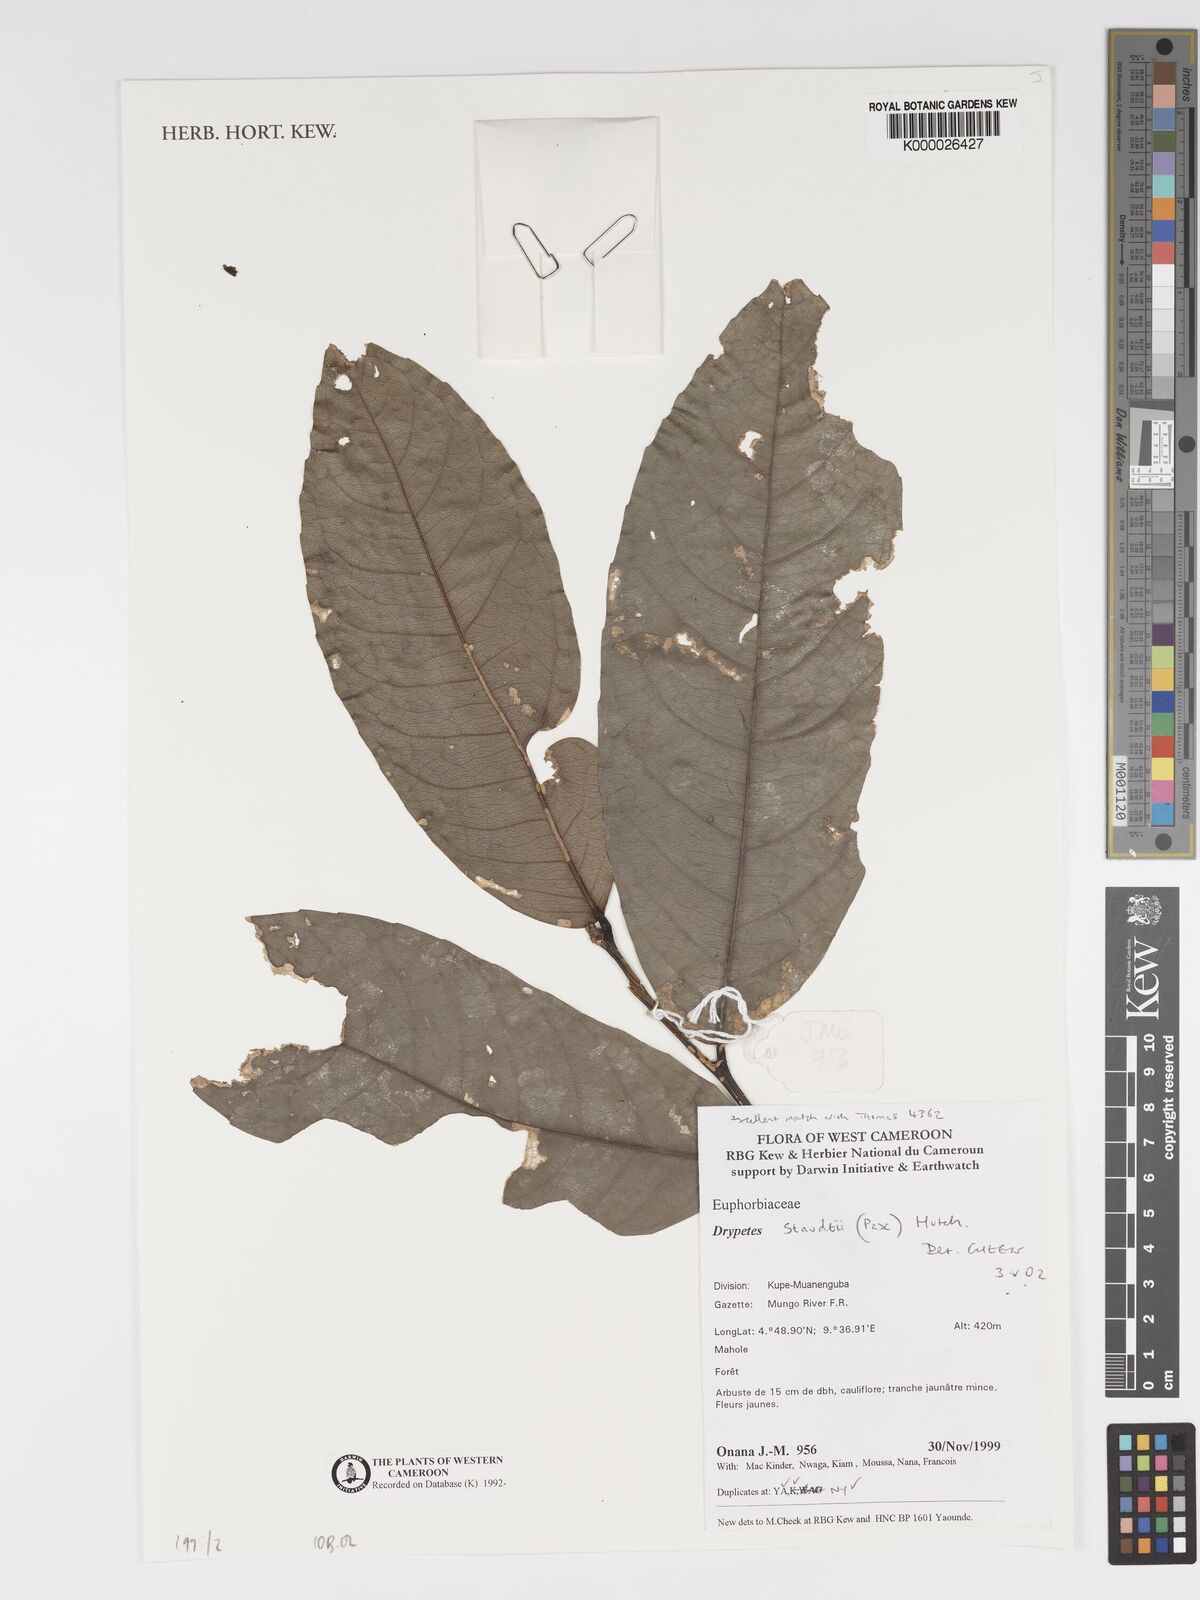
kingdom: Plantae
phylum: Tracheophyta
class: Magnoliopsida
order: Malpighiales
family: Putranjivaceae
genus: Drypetes
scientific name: Drypetes staudtii
